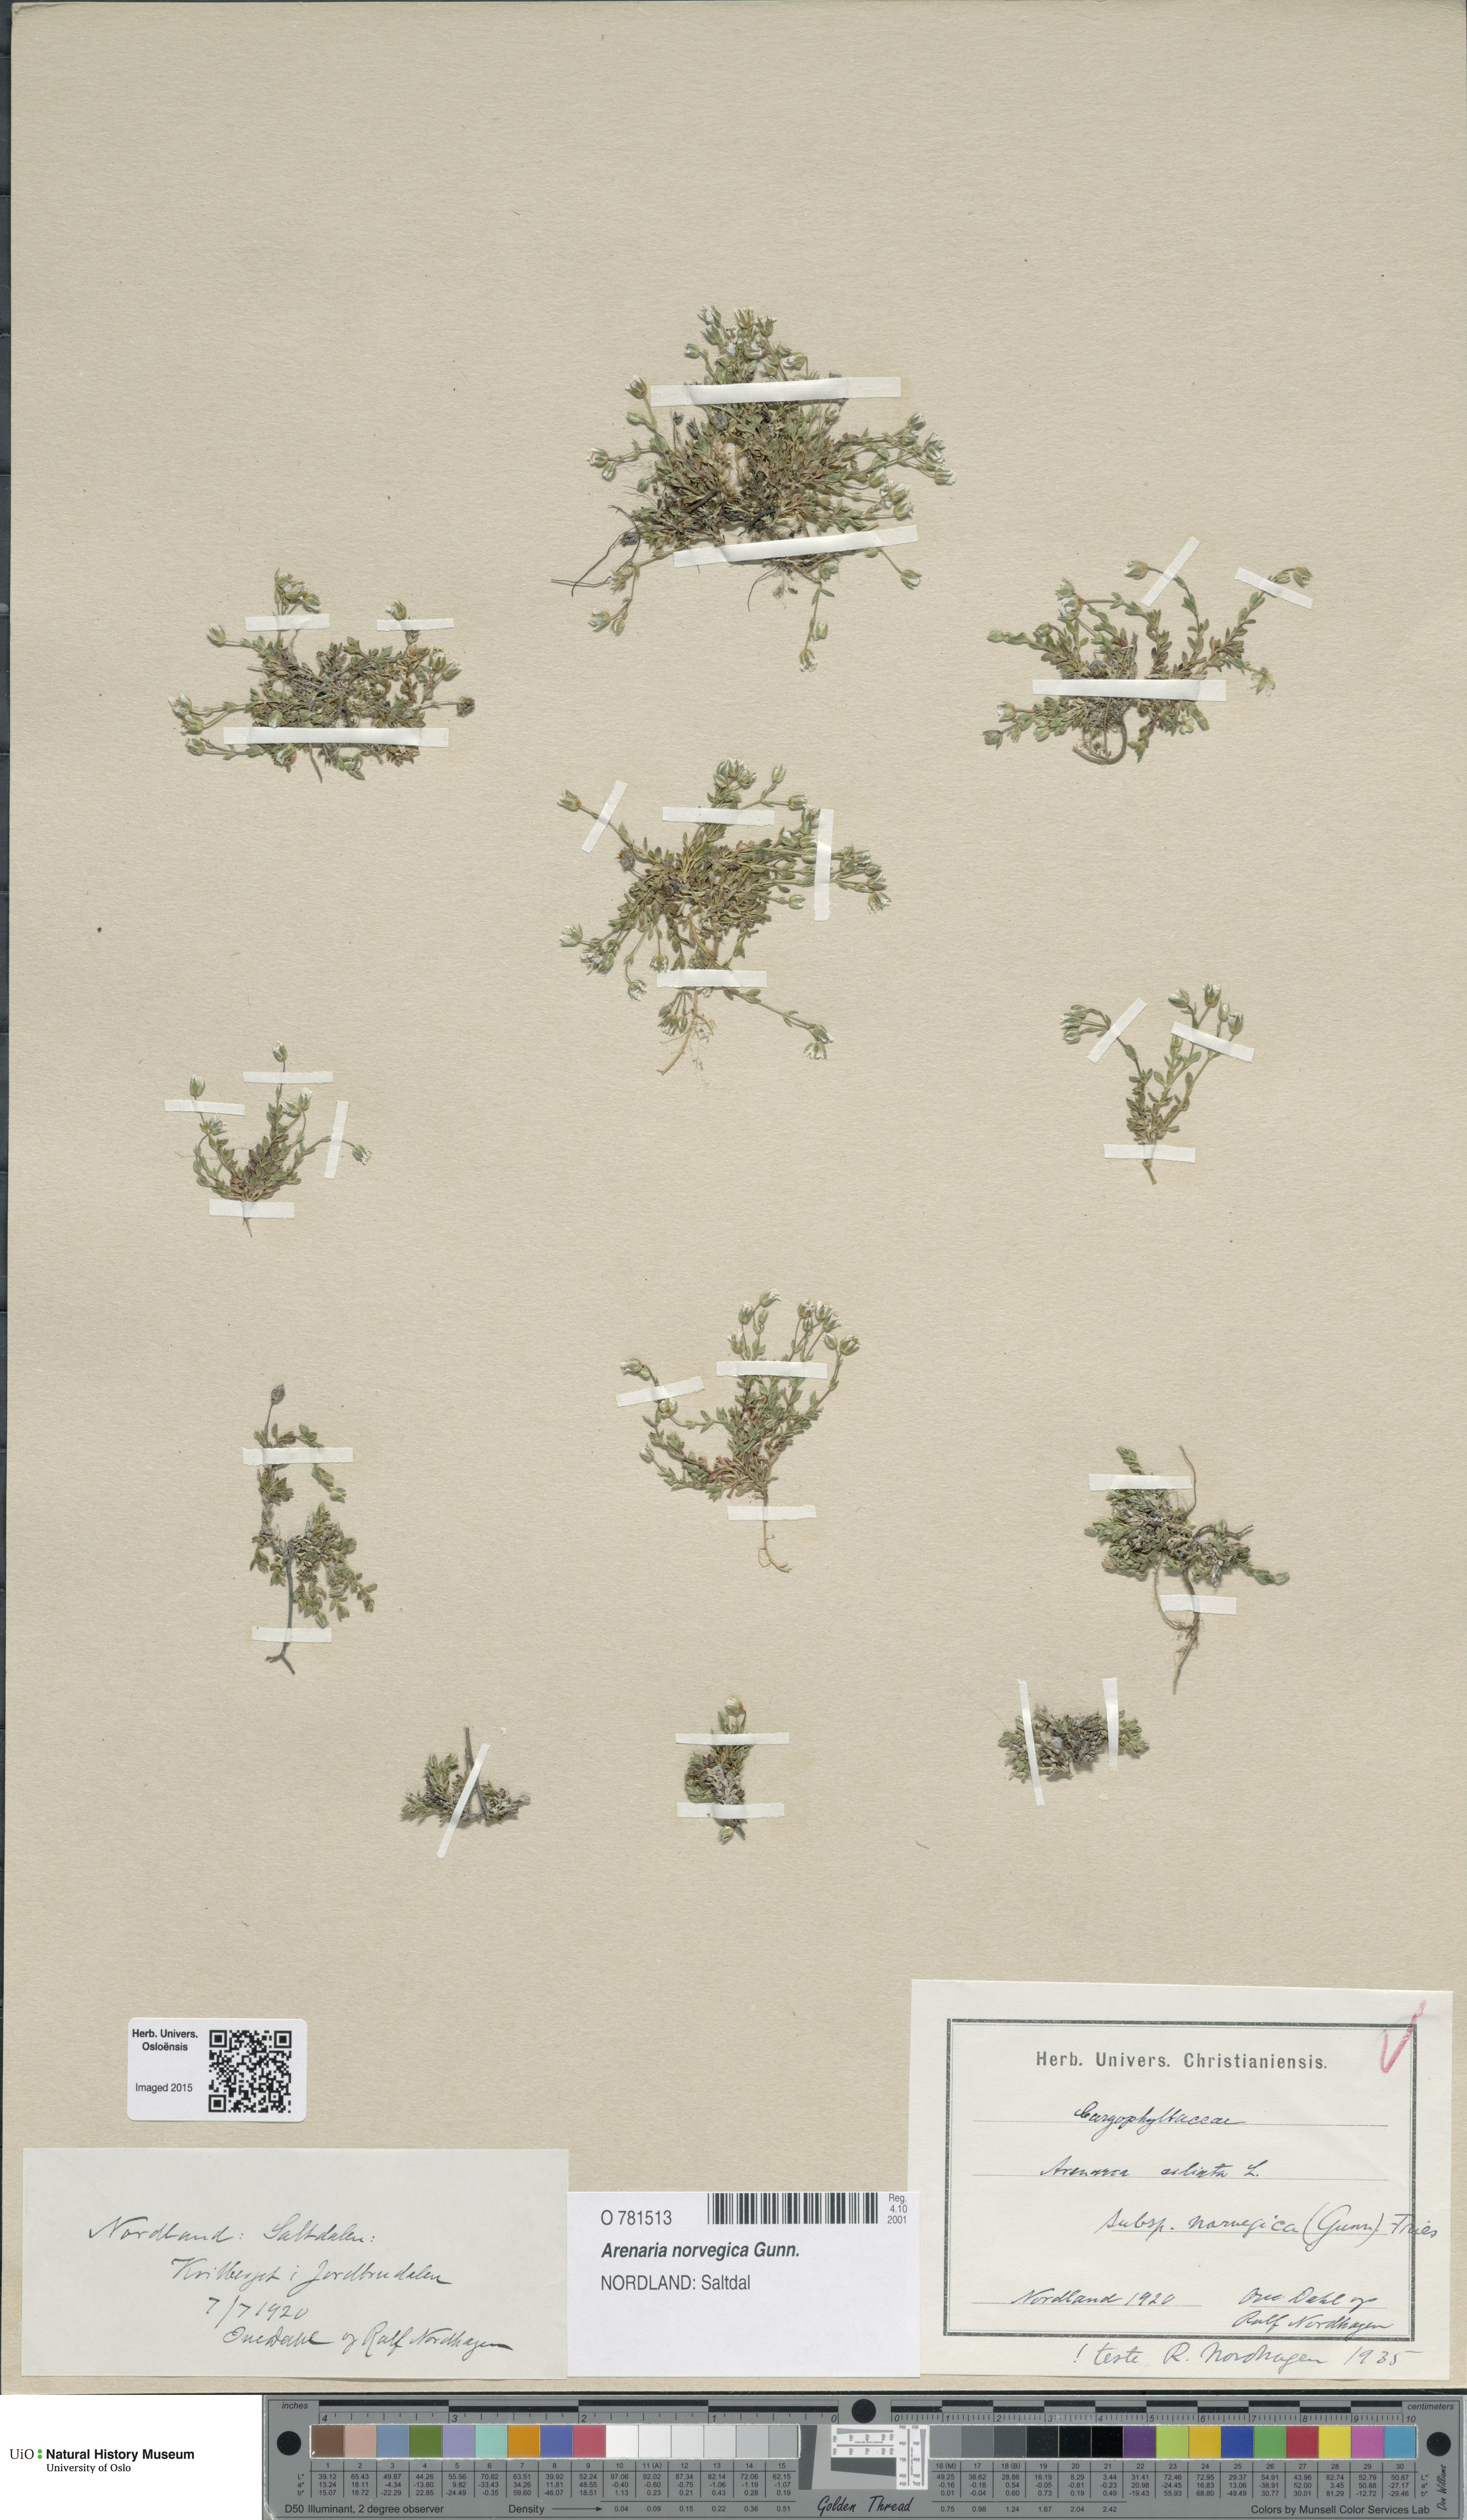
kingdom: Plantae
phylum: Tracheophyta
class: Magnoliopsida
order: Caryophyllales
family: Caryophyllaceae
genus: Arenaria
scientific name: Arenaria norvegica
